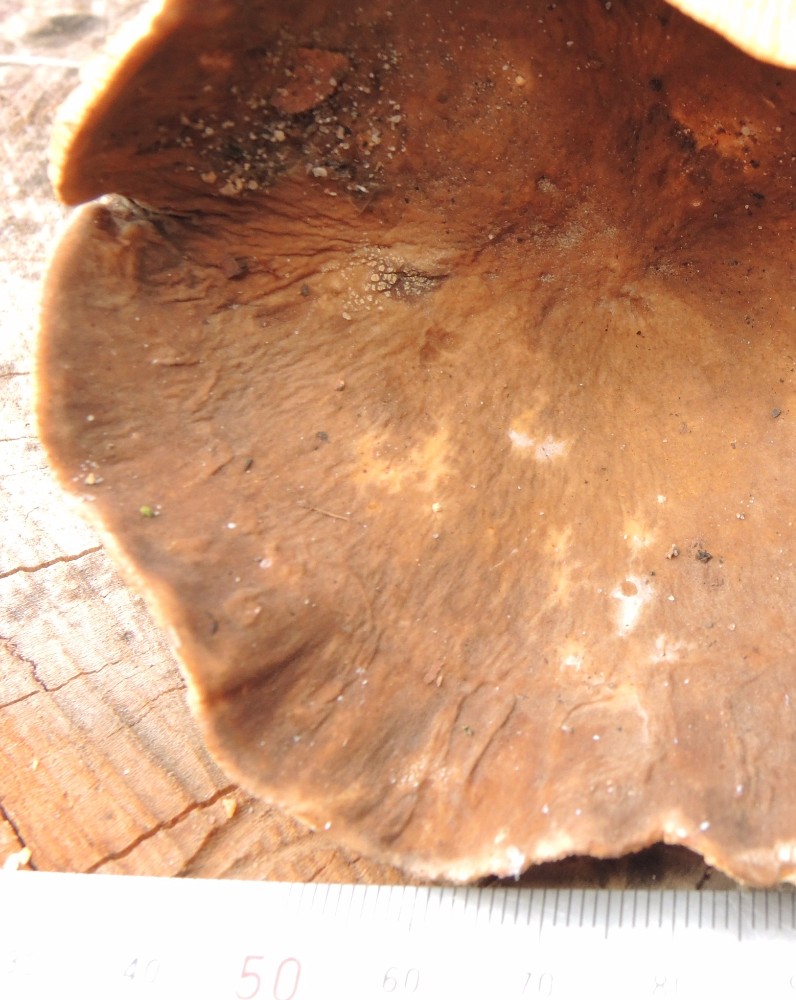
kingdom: Fungi
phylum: Basidiomycota
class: Agaricomycetes
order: Russulales
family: Russulaceae
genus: Lactarius
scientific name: Lactarius pterosporus
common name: vingesporet mælkehat
